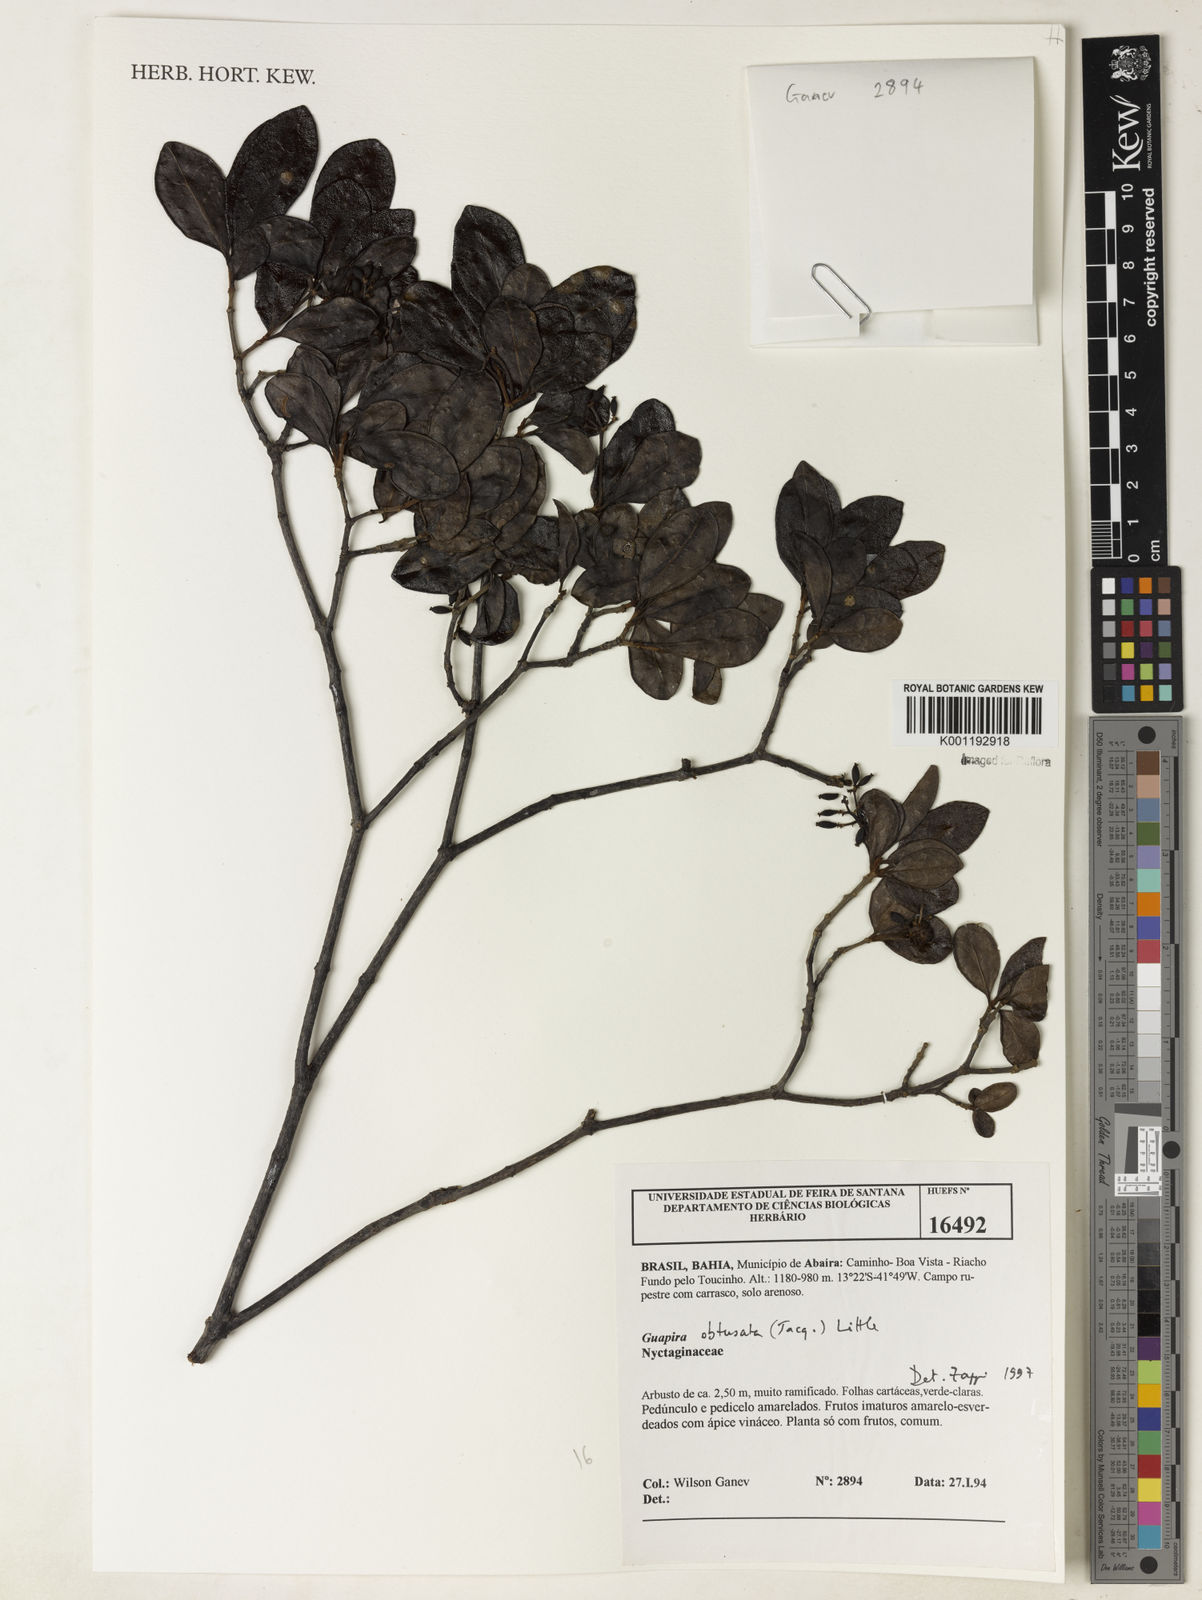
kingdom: Plantae
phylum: Tracheophyta
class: Magnoliopsida
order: Caryophyllales
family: Nyctaginaceae
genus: Guapira
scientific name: Guapira obtusata
